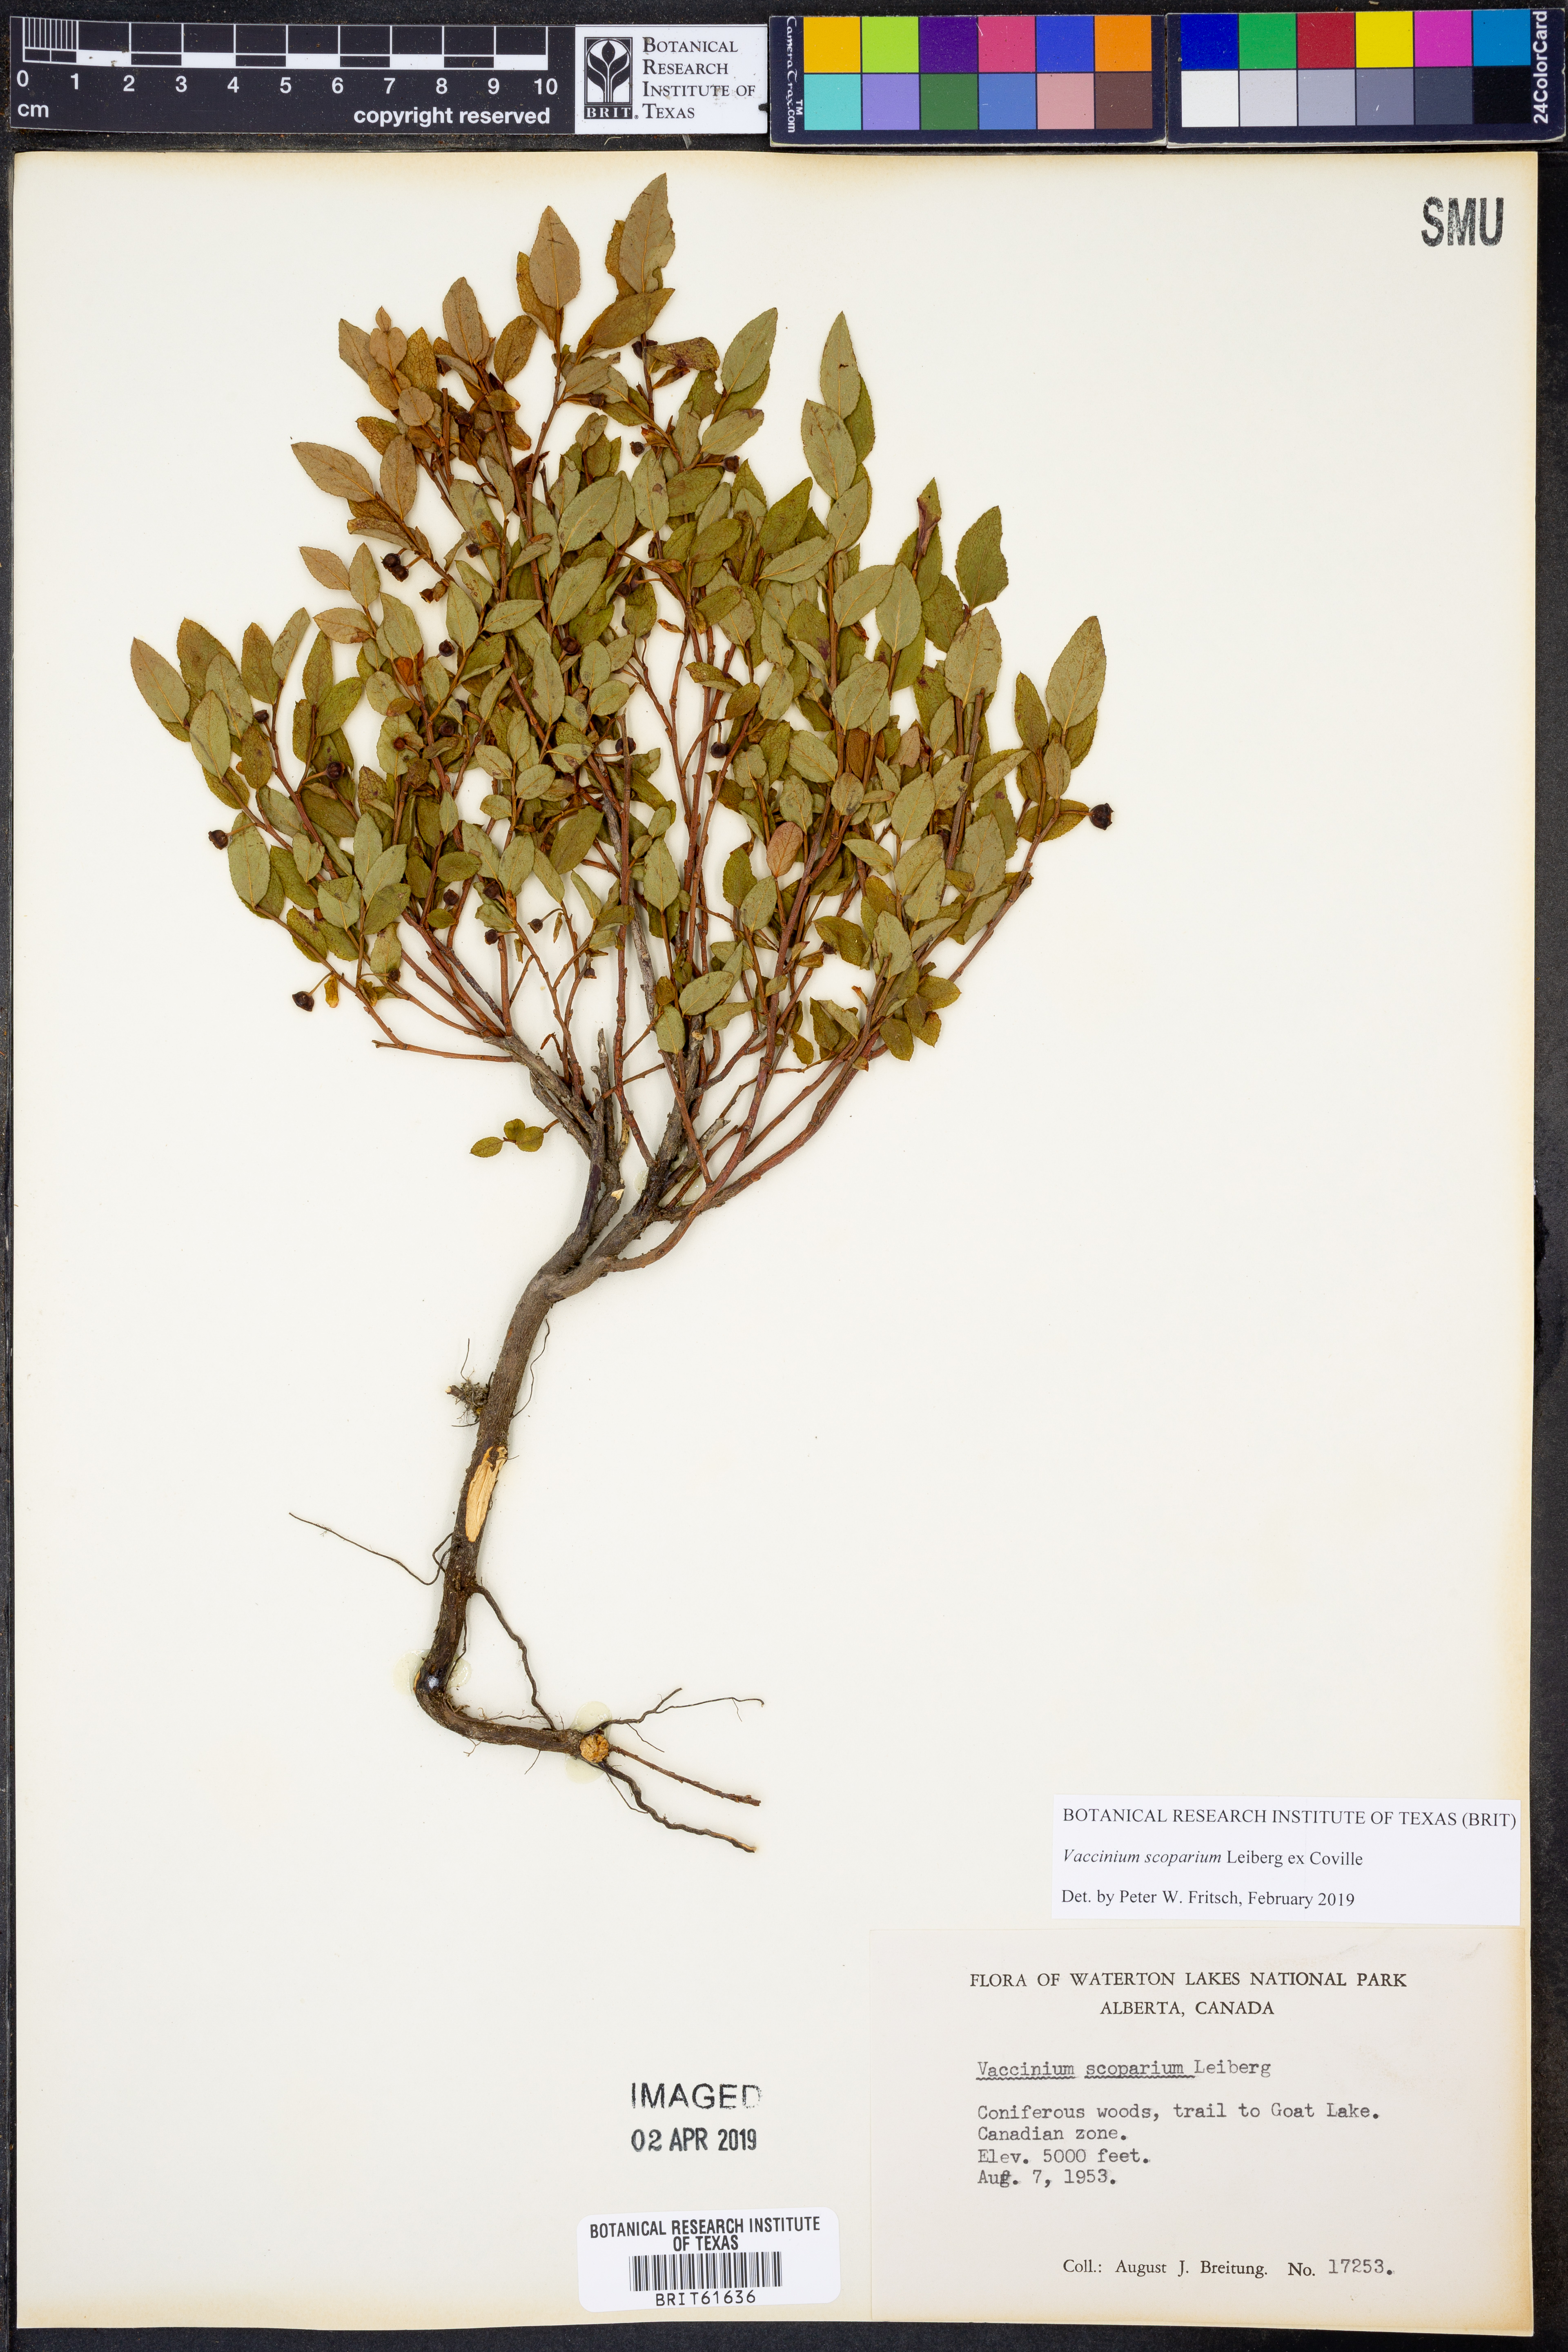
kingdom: Plantae
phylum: Tracheophyta
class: Magnoliopsida
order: Ericales
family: Ericaceae
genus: Vaccinium
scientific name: Vaccinium scoparium
